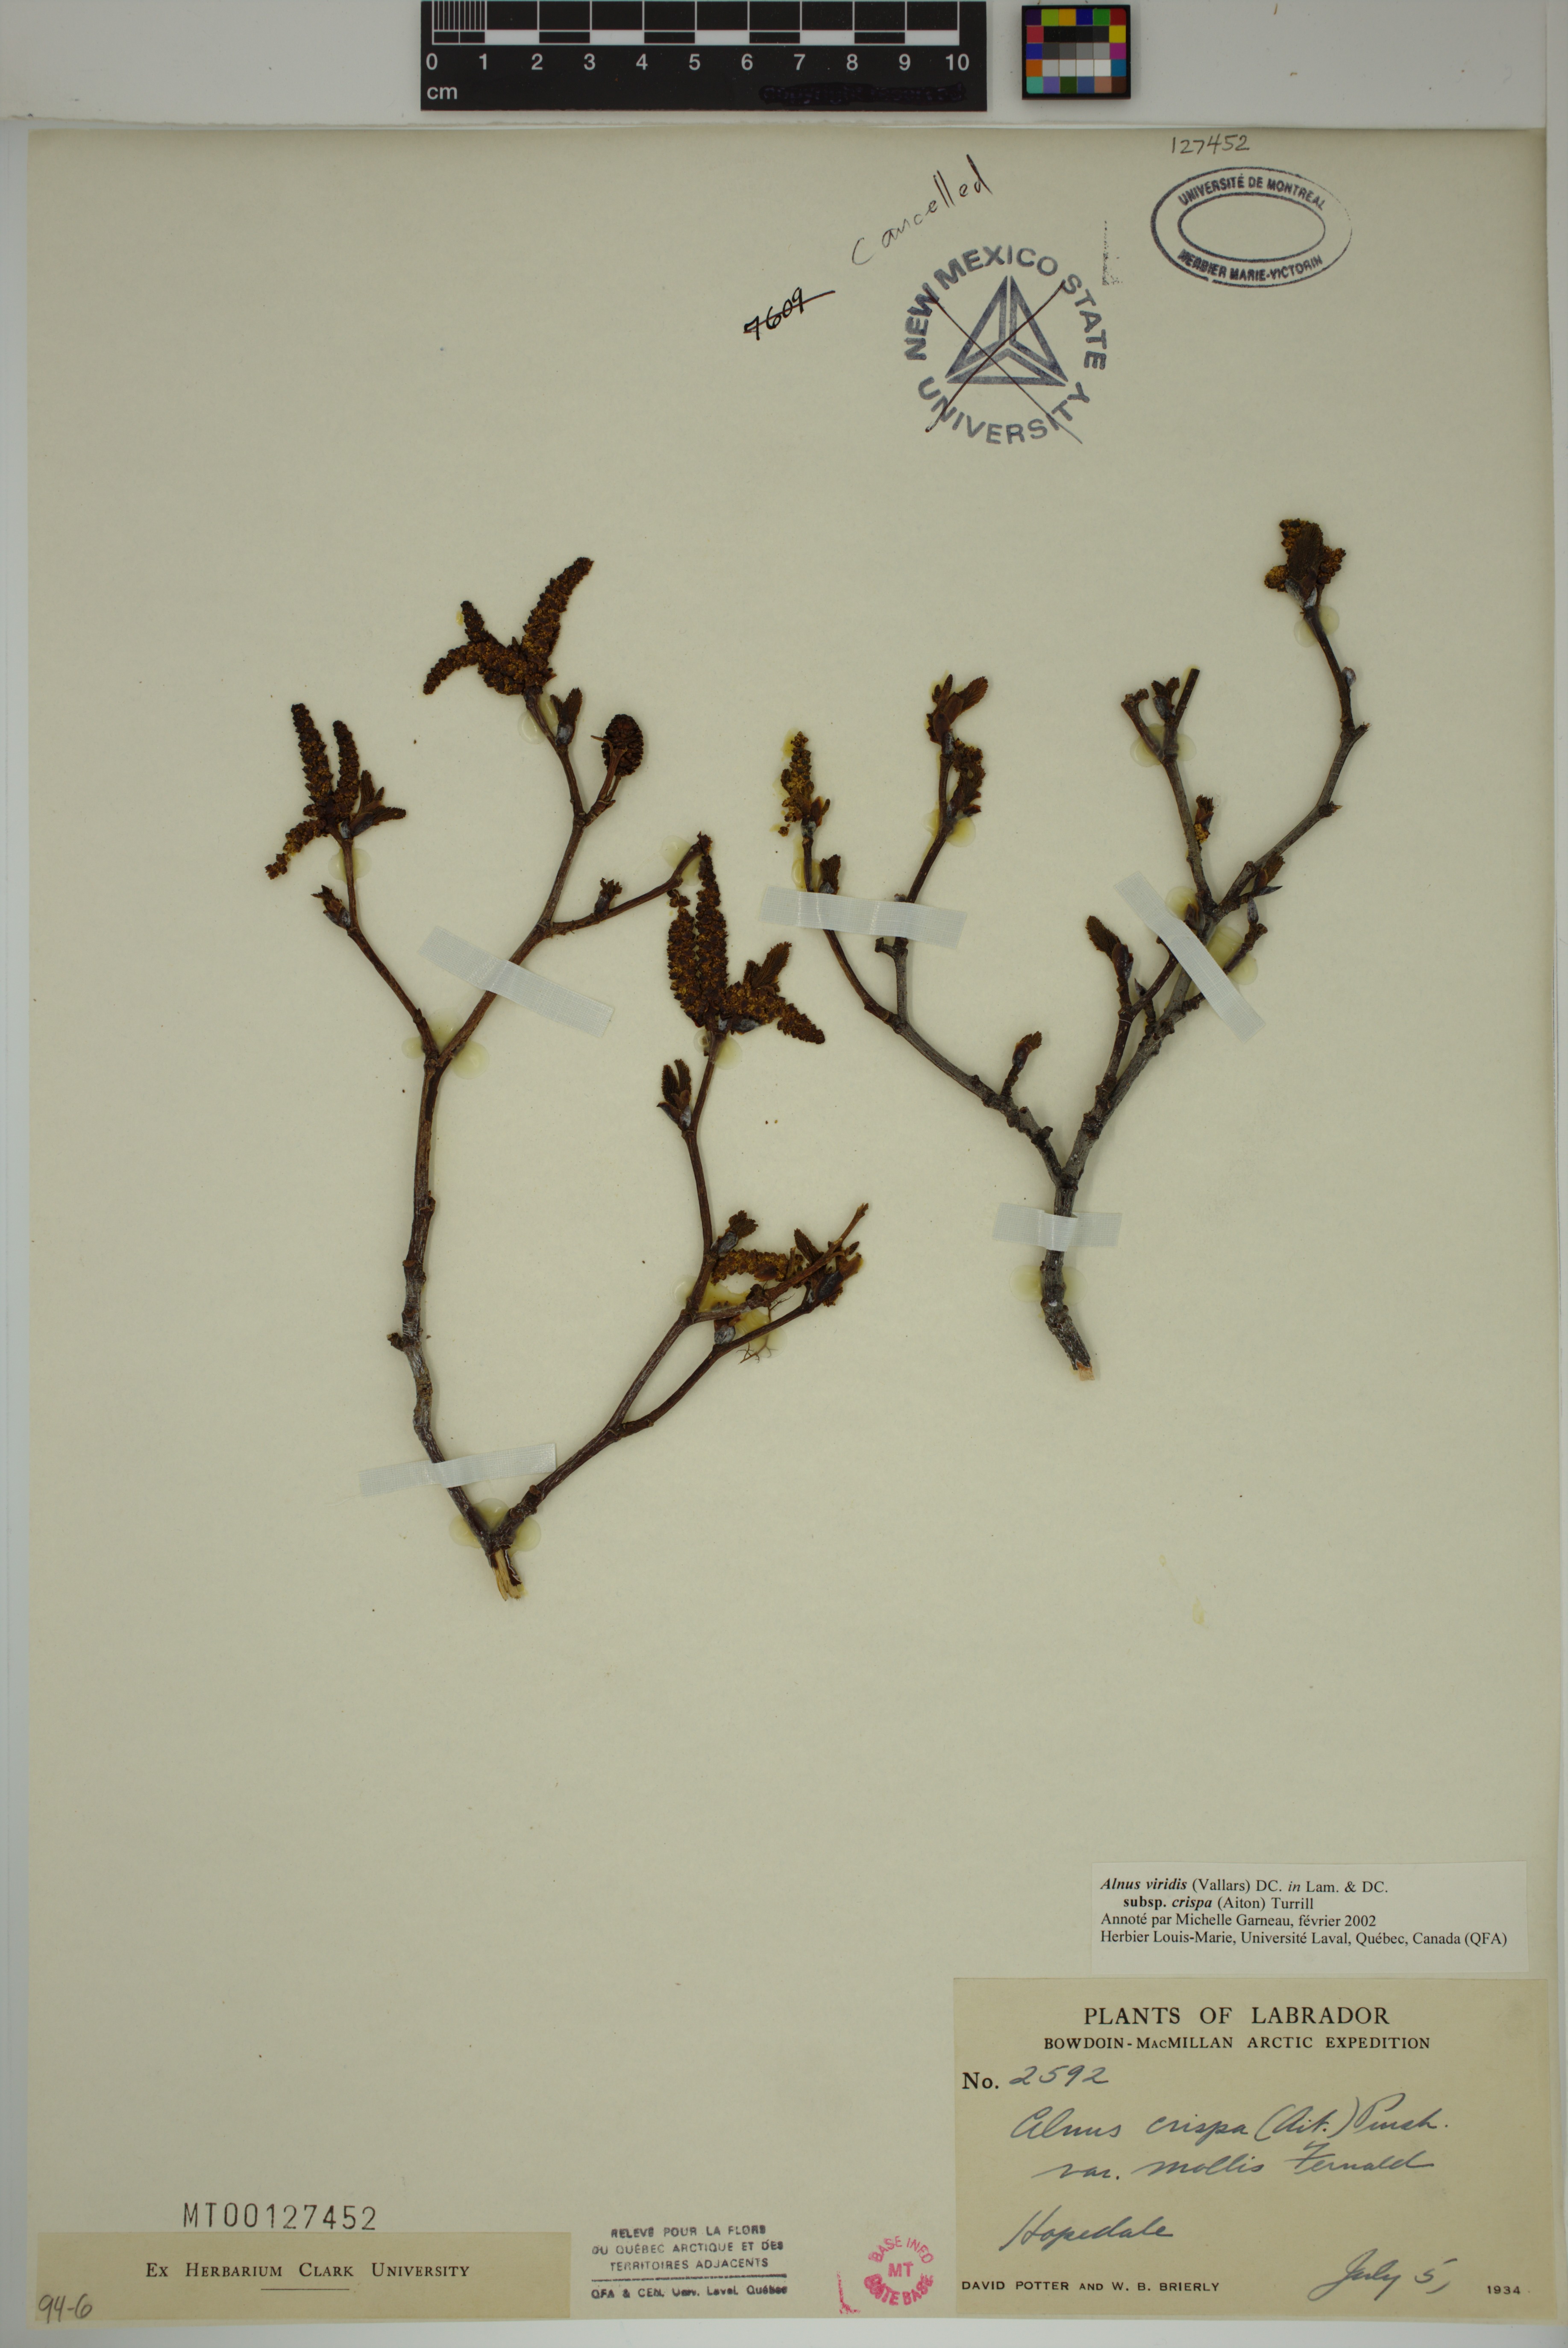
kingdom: Plantae
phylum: Tracheophyta
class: Magnoliopsida
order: Fagales
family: Betulaceae
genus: Alnus
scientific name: Alnus alnobetula
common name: Green alder
